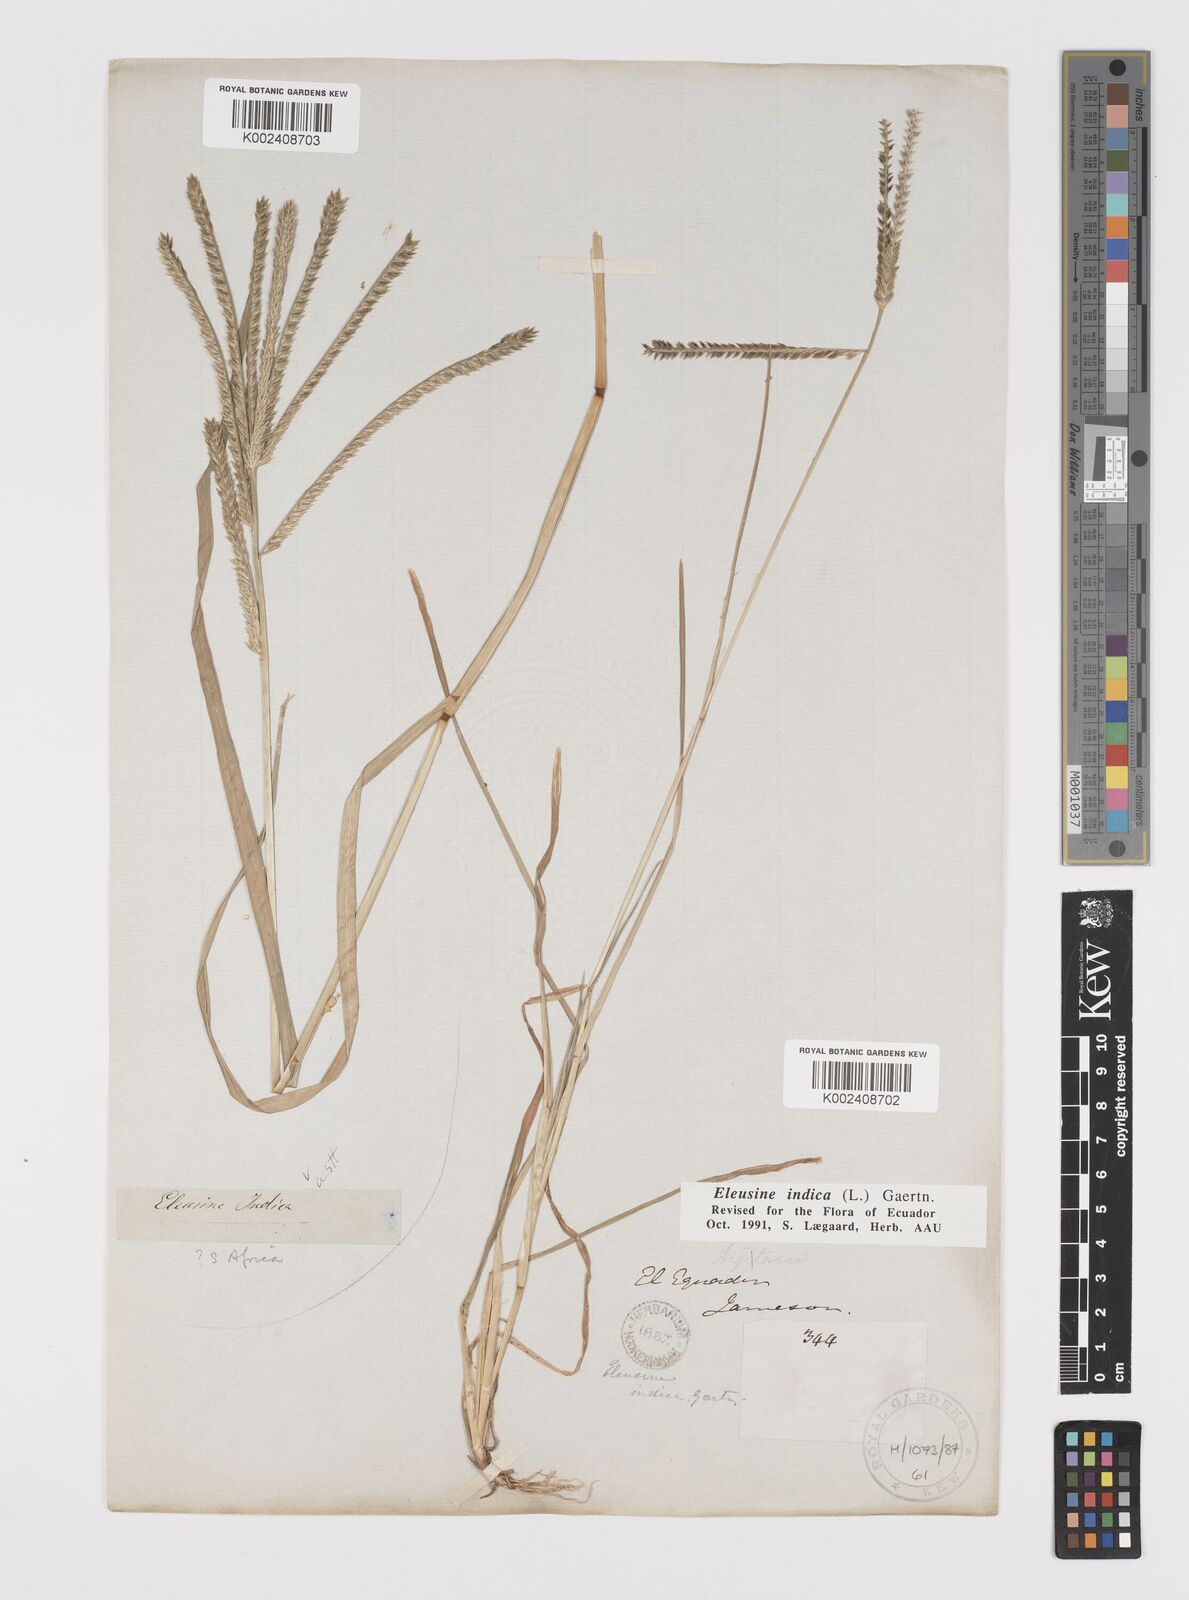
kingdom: Plantae
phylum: Tracheophyta
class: Liliopsida
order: Poales
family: Poaceae
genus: Eleusine
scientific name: Eleusine indica
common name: Yard-grass
